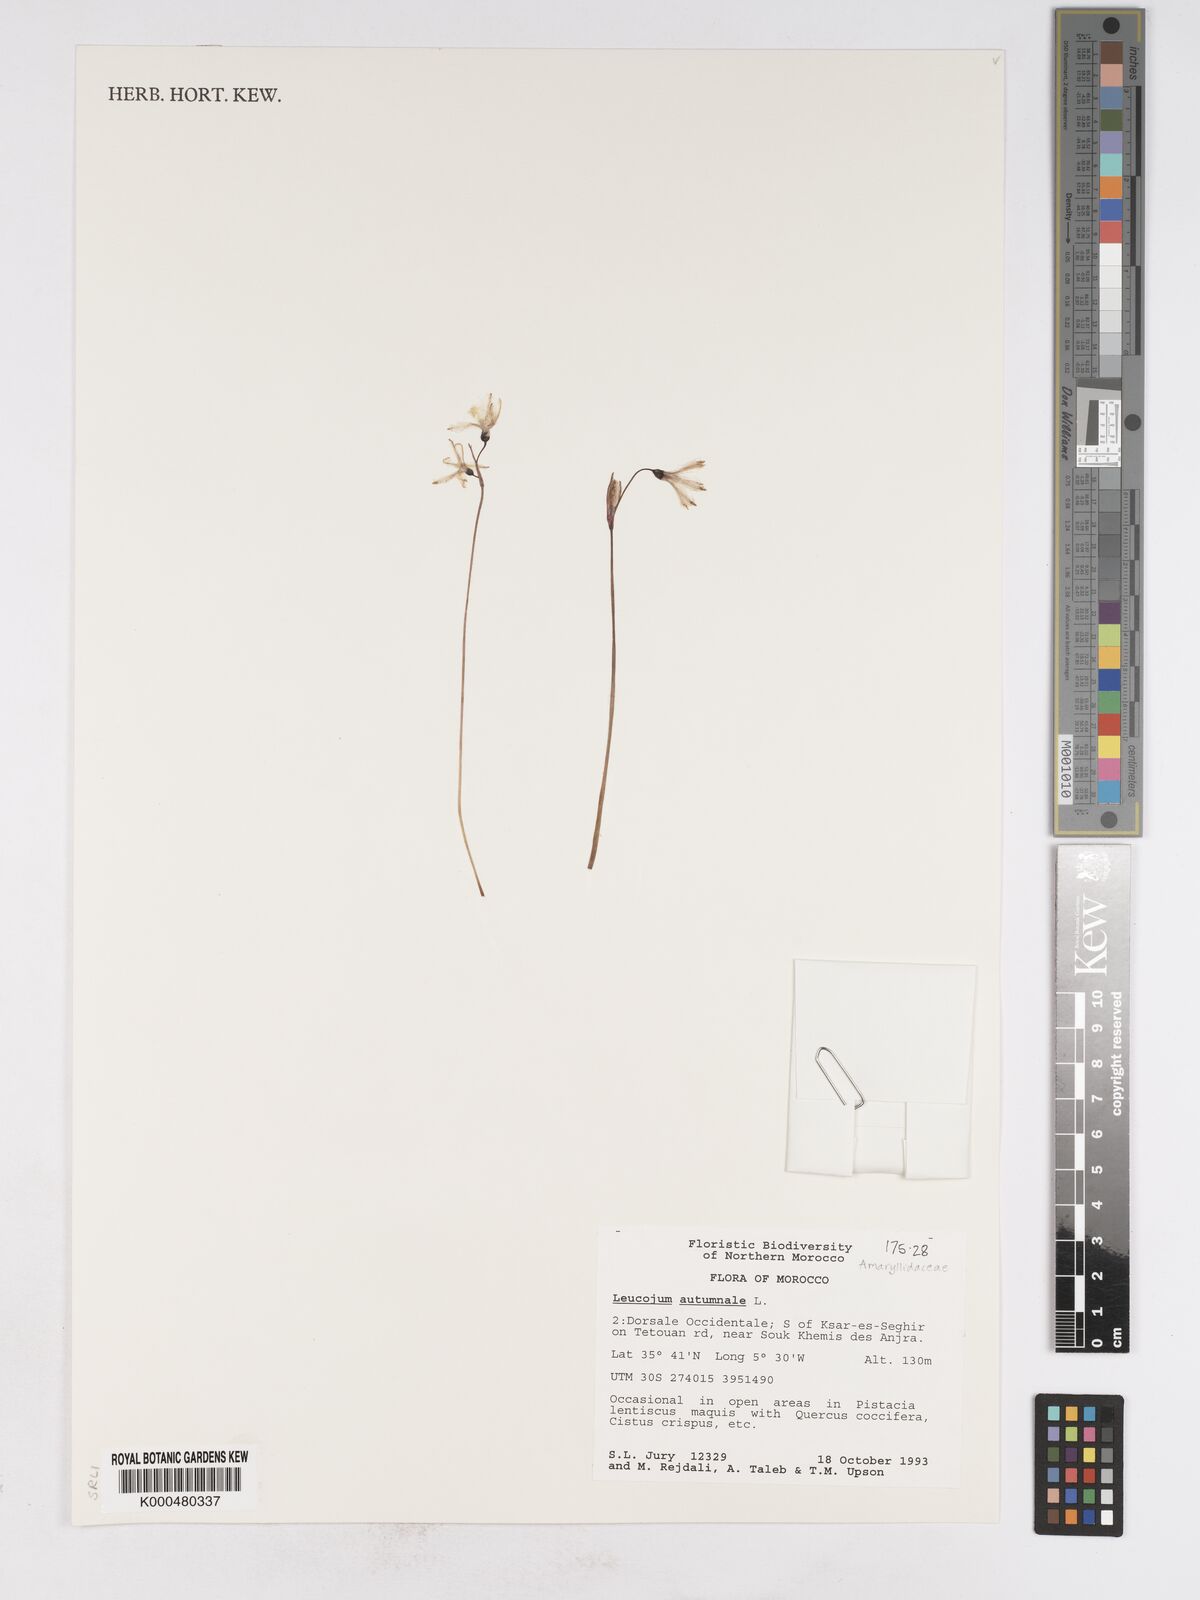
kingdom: Plantae
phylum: Tracheophyta
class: Liliopsida
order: Asparagales
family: Amaryllidaceae
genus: Acis
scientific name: Acis autumnalis
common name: Autumn snowflake
